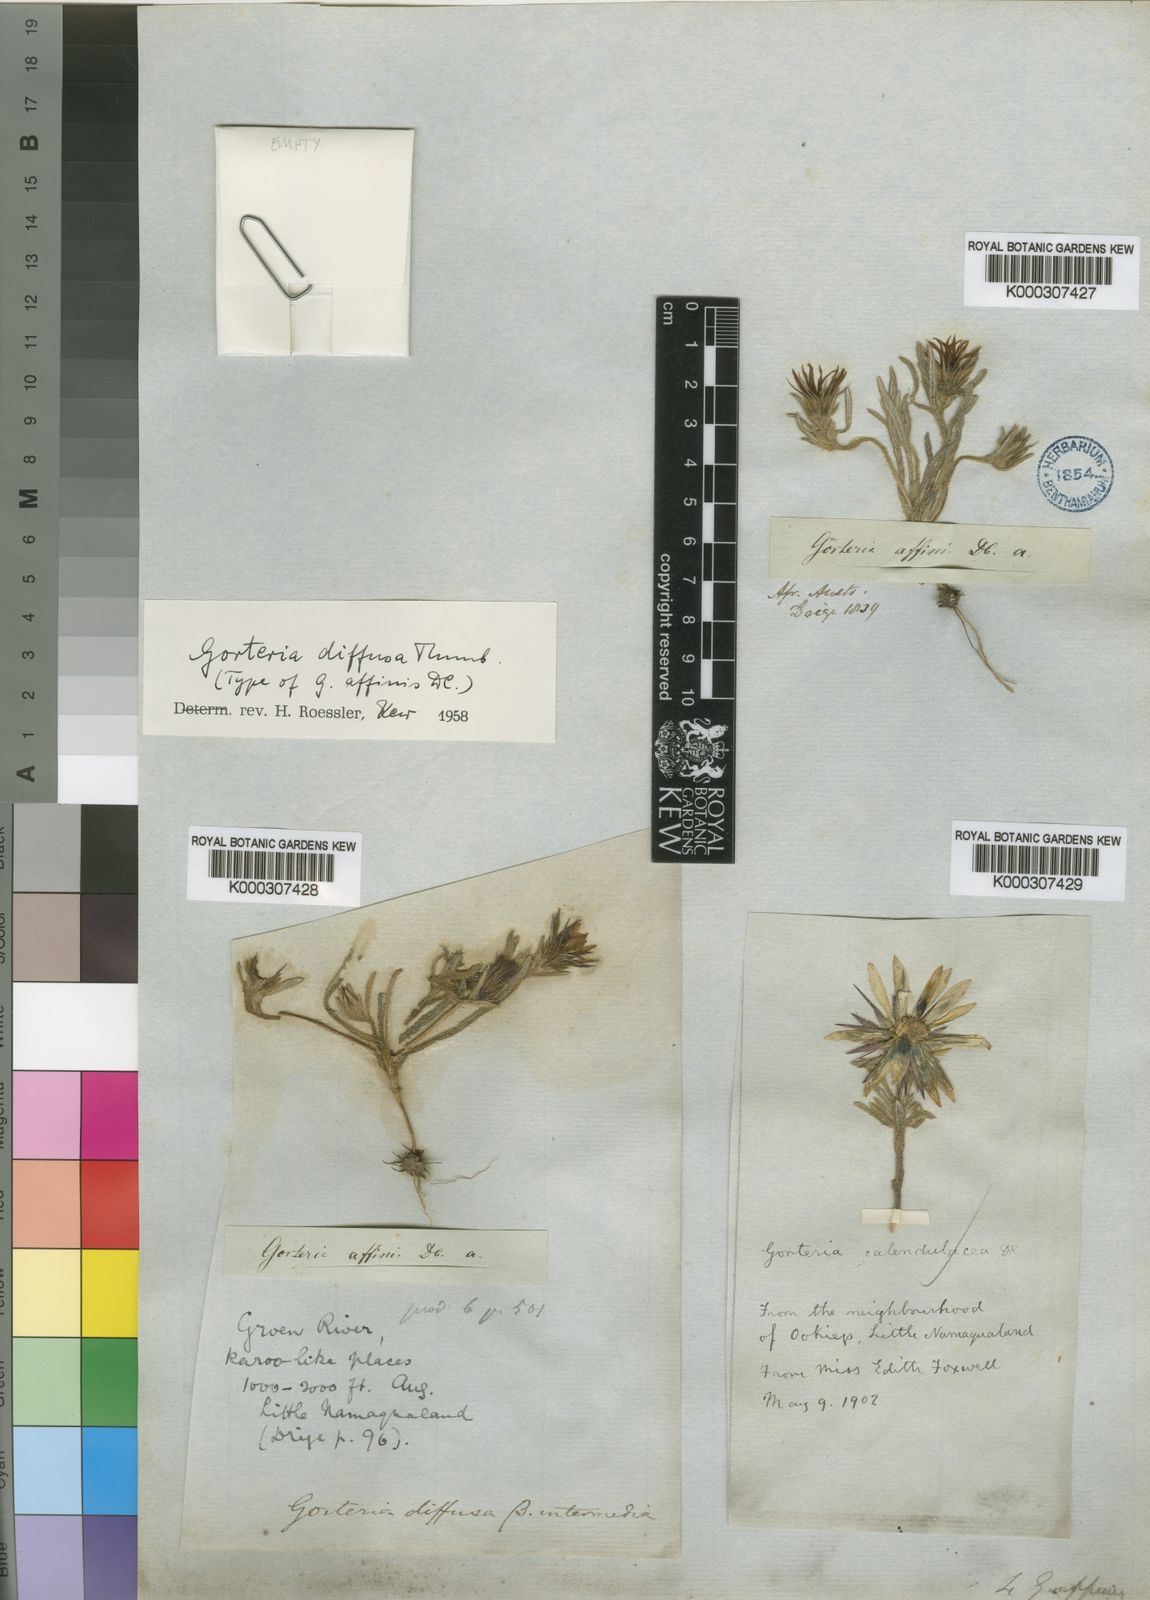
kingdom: Plantae
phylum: Tracheophyta
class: Magnoliopsida
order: Asterales
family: Asteraceae
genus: Gorteria
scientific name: Gorteria diffusa
